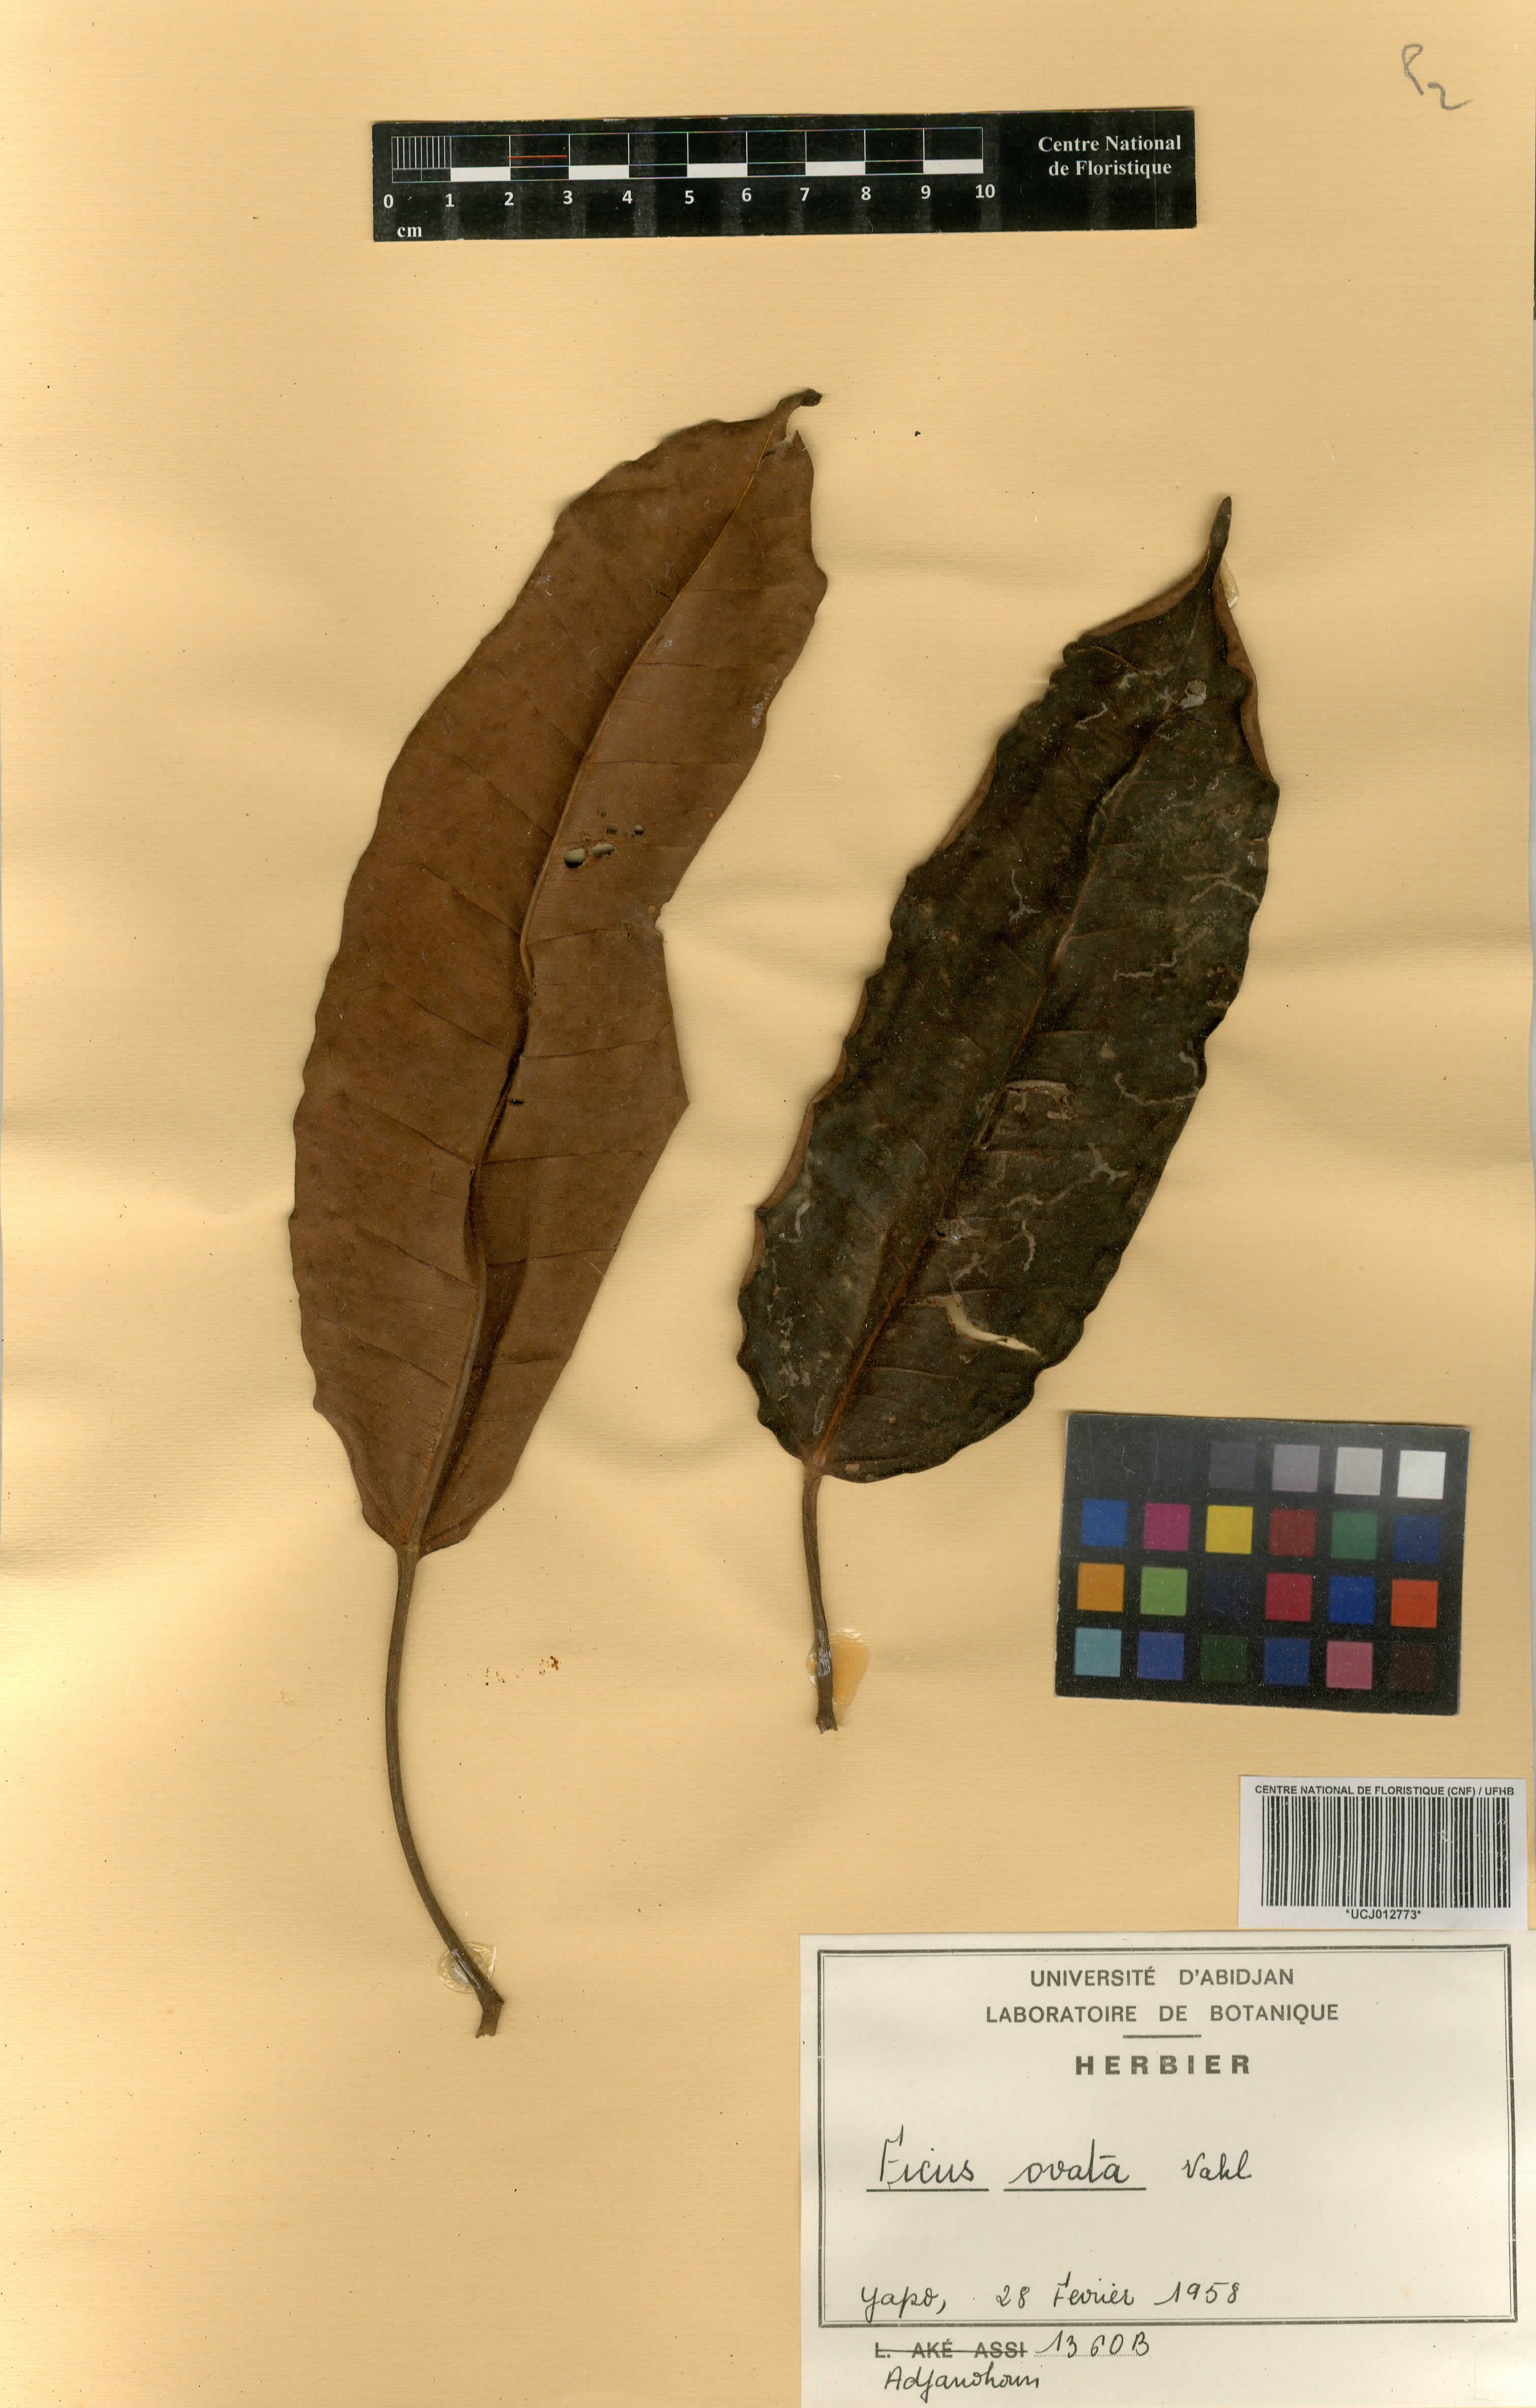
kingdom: Plantae
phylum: Tracheophyta
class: Magnoliopsida
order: Rosales
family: Moraceae
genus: Ficus
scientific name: Ficus laurifolia
